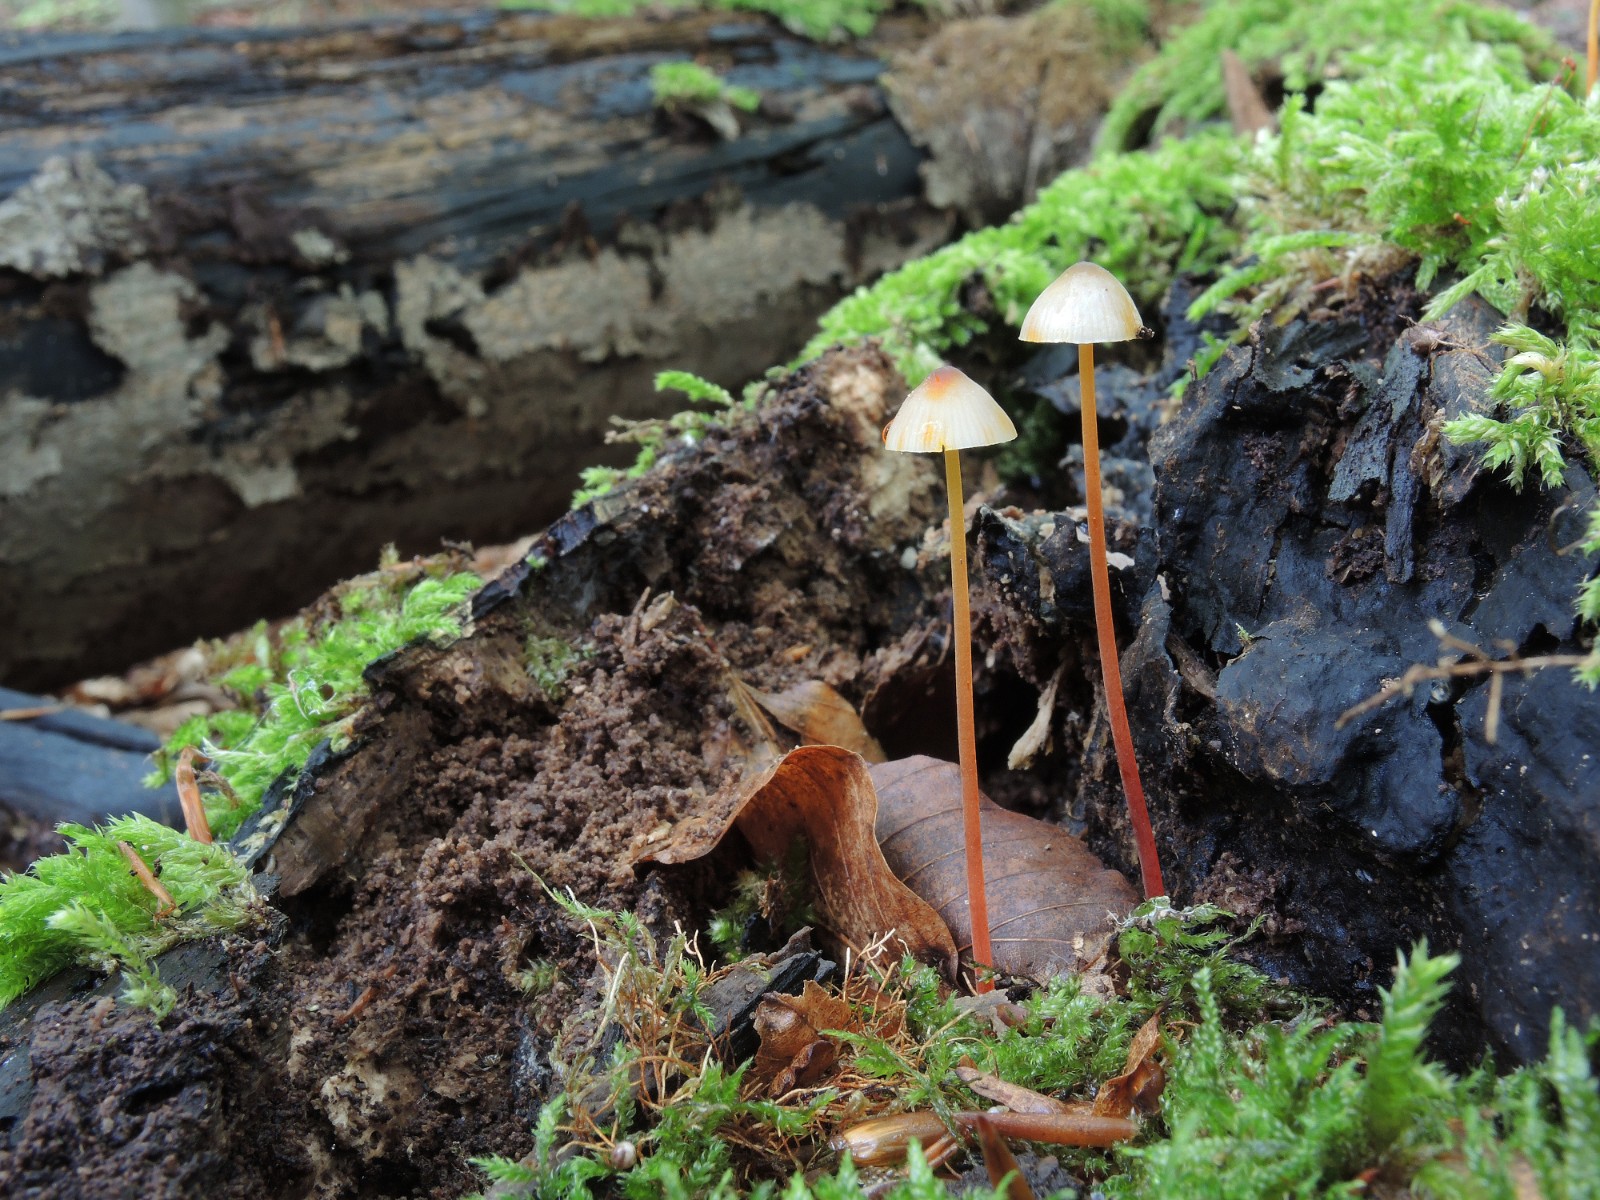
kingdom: Fungi
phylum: Basidiomycota
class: Agaricomycetes
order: Agaricales
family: Mycenaceae
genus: Mycena
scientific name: Mycena crocata
